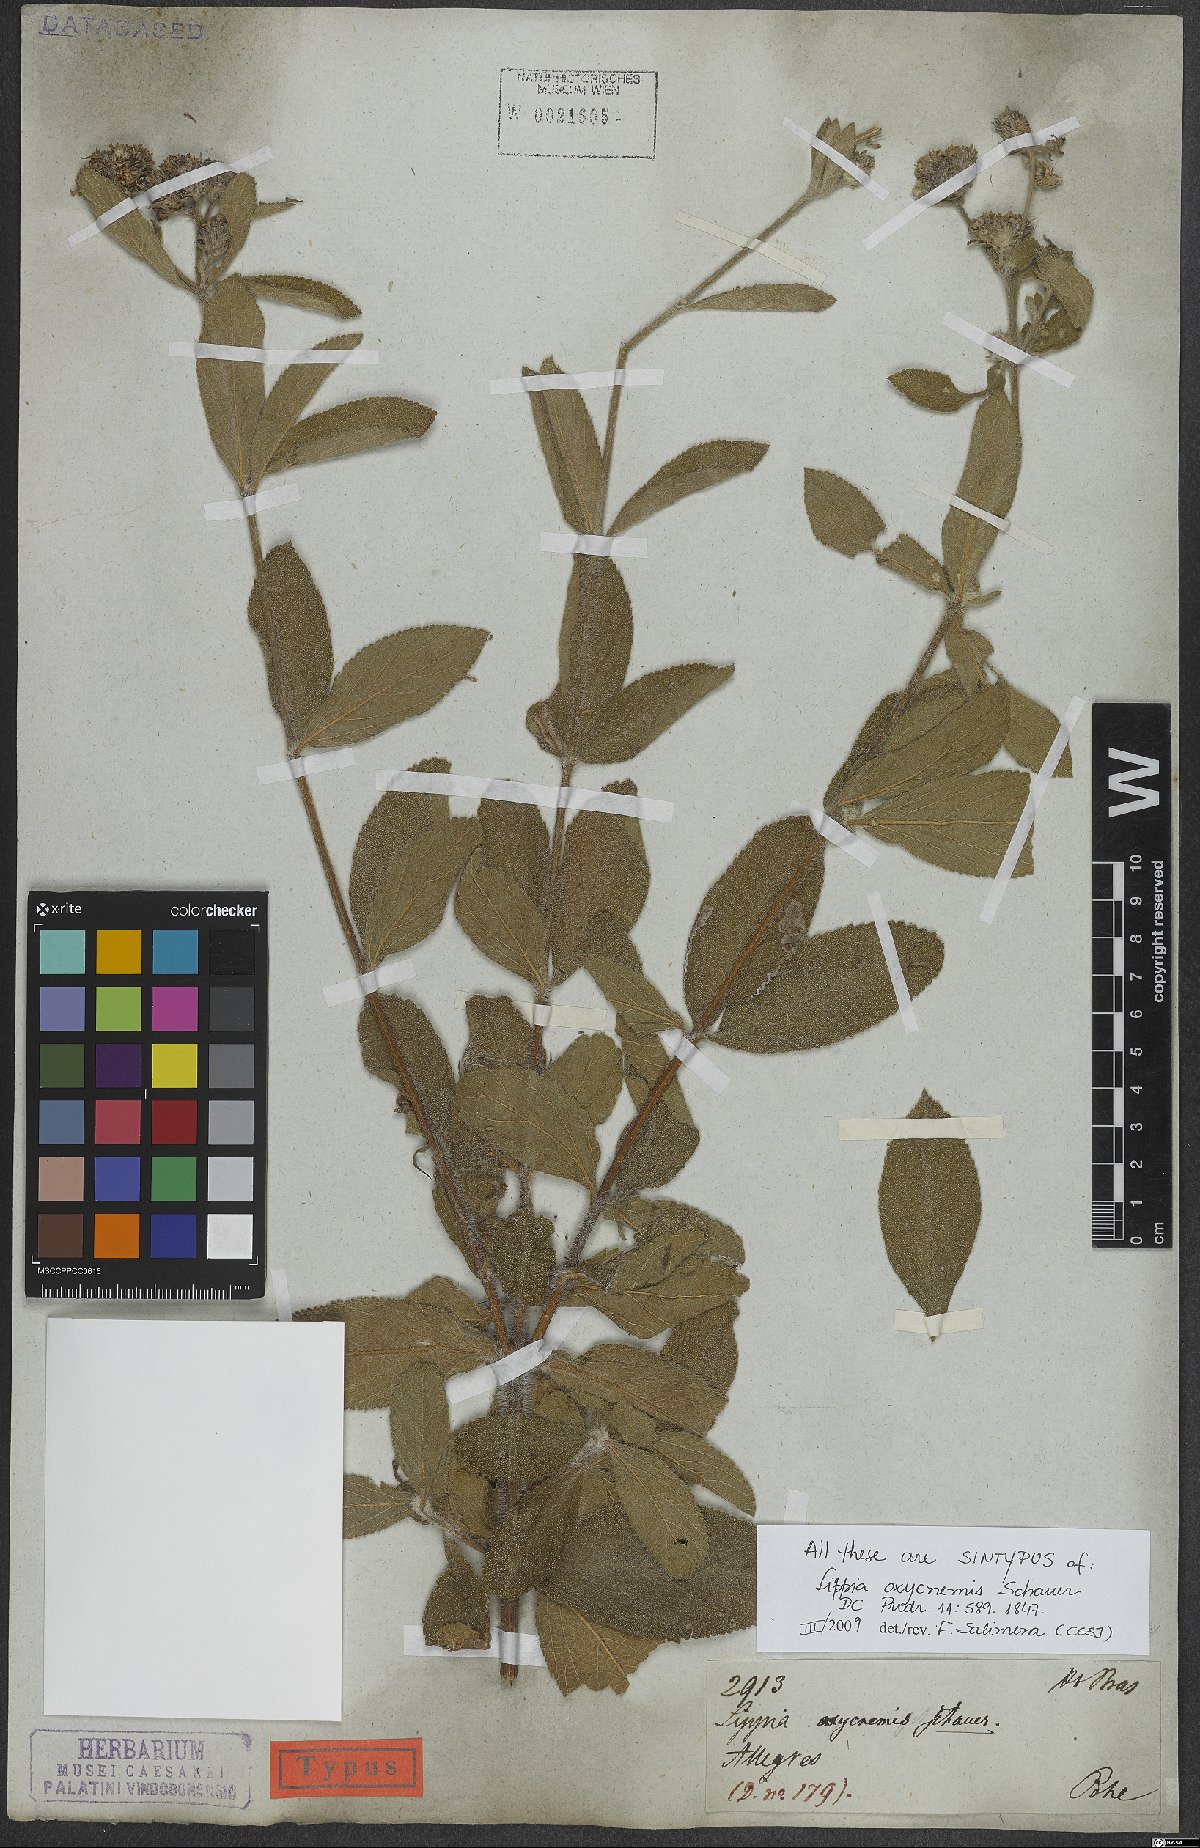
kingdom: Plantae
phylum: Tracheophyta
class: Magnoliopsida
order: Lamiales
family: Verbenaceae
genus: Lippia
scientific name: Lippia oxycnemis
